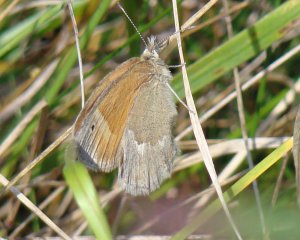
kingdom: Animalia
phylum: Arthropoda
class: Insecta
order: Lepidoptera
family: Nymphalidae
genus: Coenonympha
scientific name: Coenonympha tullia
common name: Large Heath
